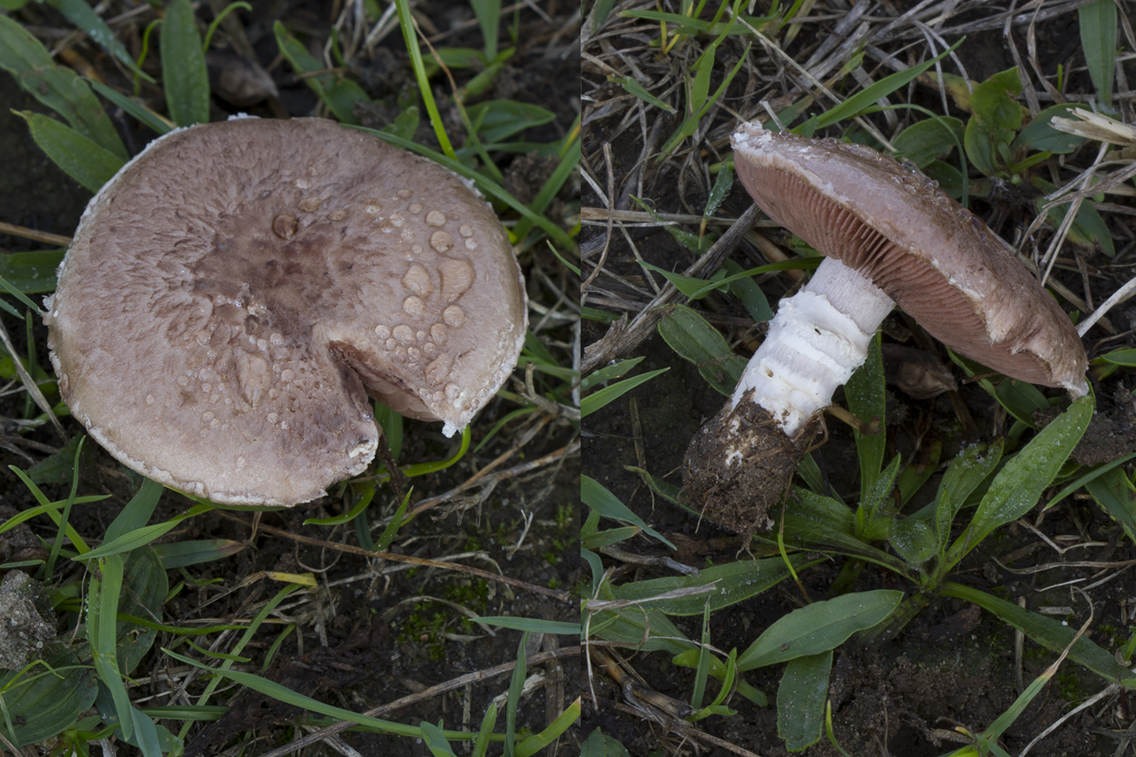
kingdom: Fungi
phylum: Basidiomycota
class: Agaricomycetes
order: Agaricales
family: Agaricaceae
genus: Agaricus
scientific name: Agaricus cupreobrunneus
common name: kobberbrun champignon
